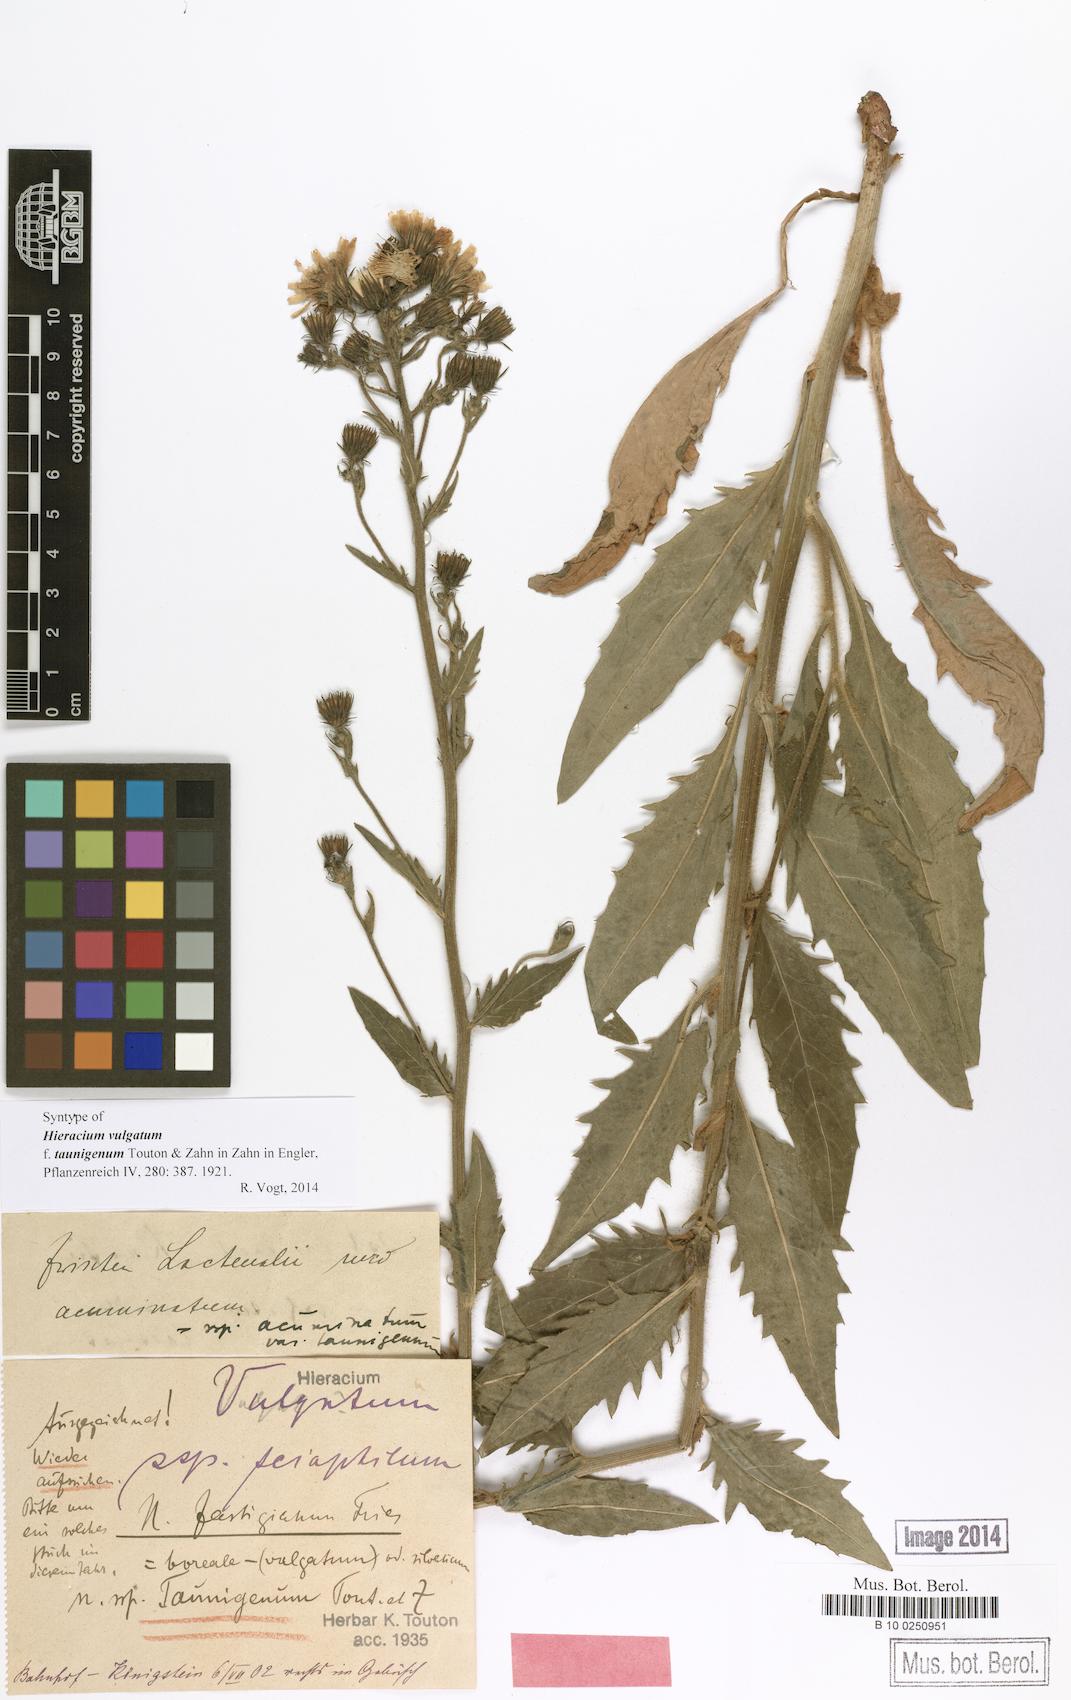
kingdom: Plantae
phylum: Tracheophyta
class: Magnoliopsida
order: Asterales
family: Asteraceae
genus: Hieracium
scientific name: Hieracium vulgatum
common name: Common hawkweed
